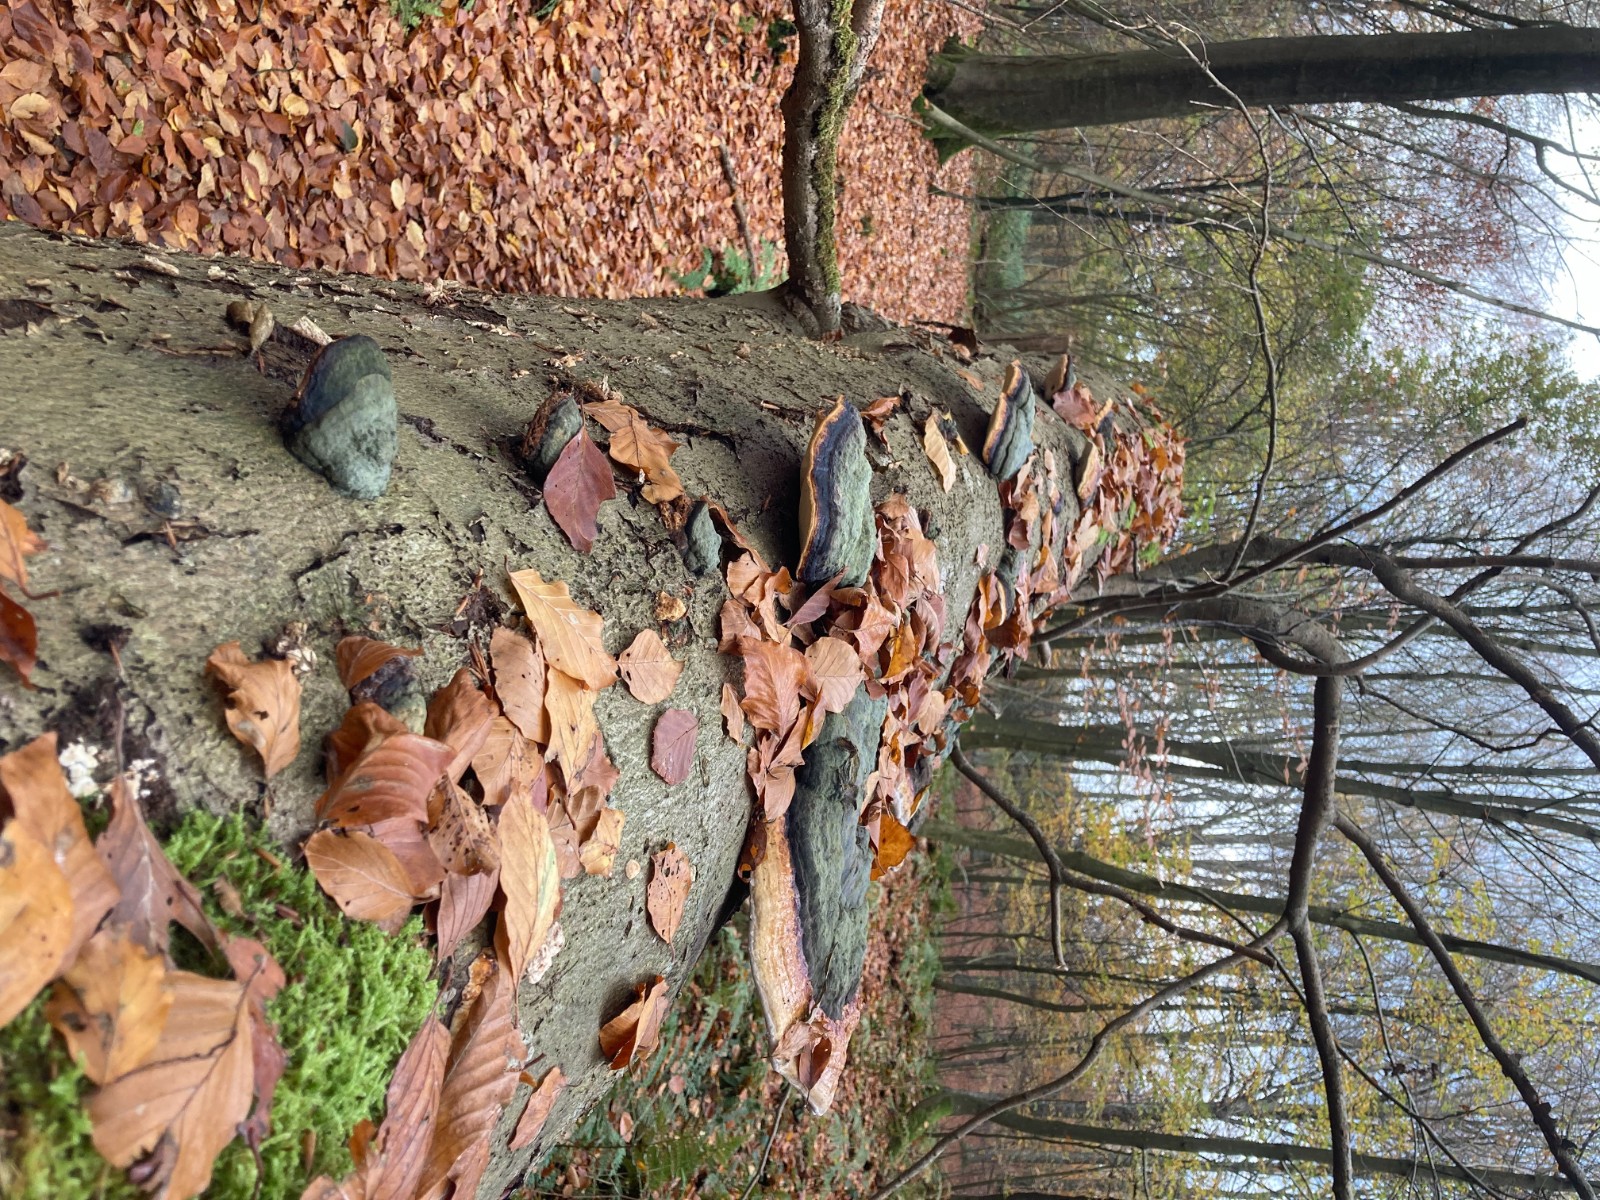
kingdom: Fungi
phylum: Basidiomycota
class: Agaricomycetes
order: Polyporales
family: Fomitopsidaceae
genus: Fomitopsis
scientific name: Fomitopsis pinicola
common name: randbæltet hovporesvamp
